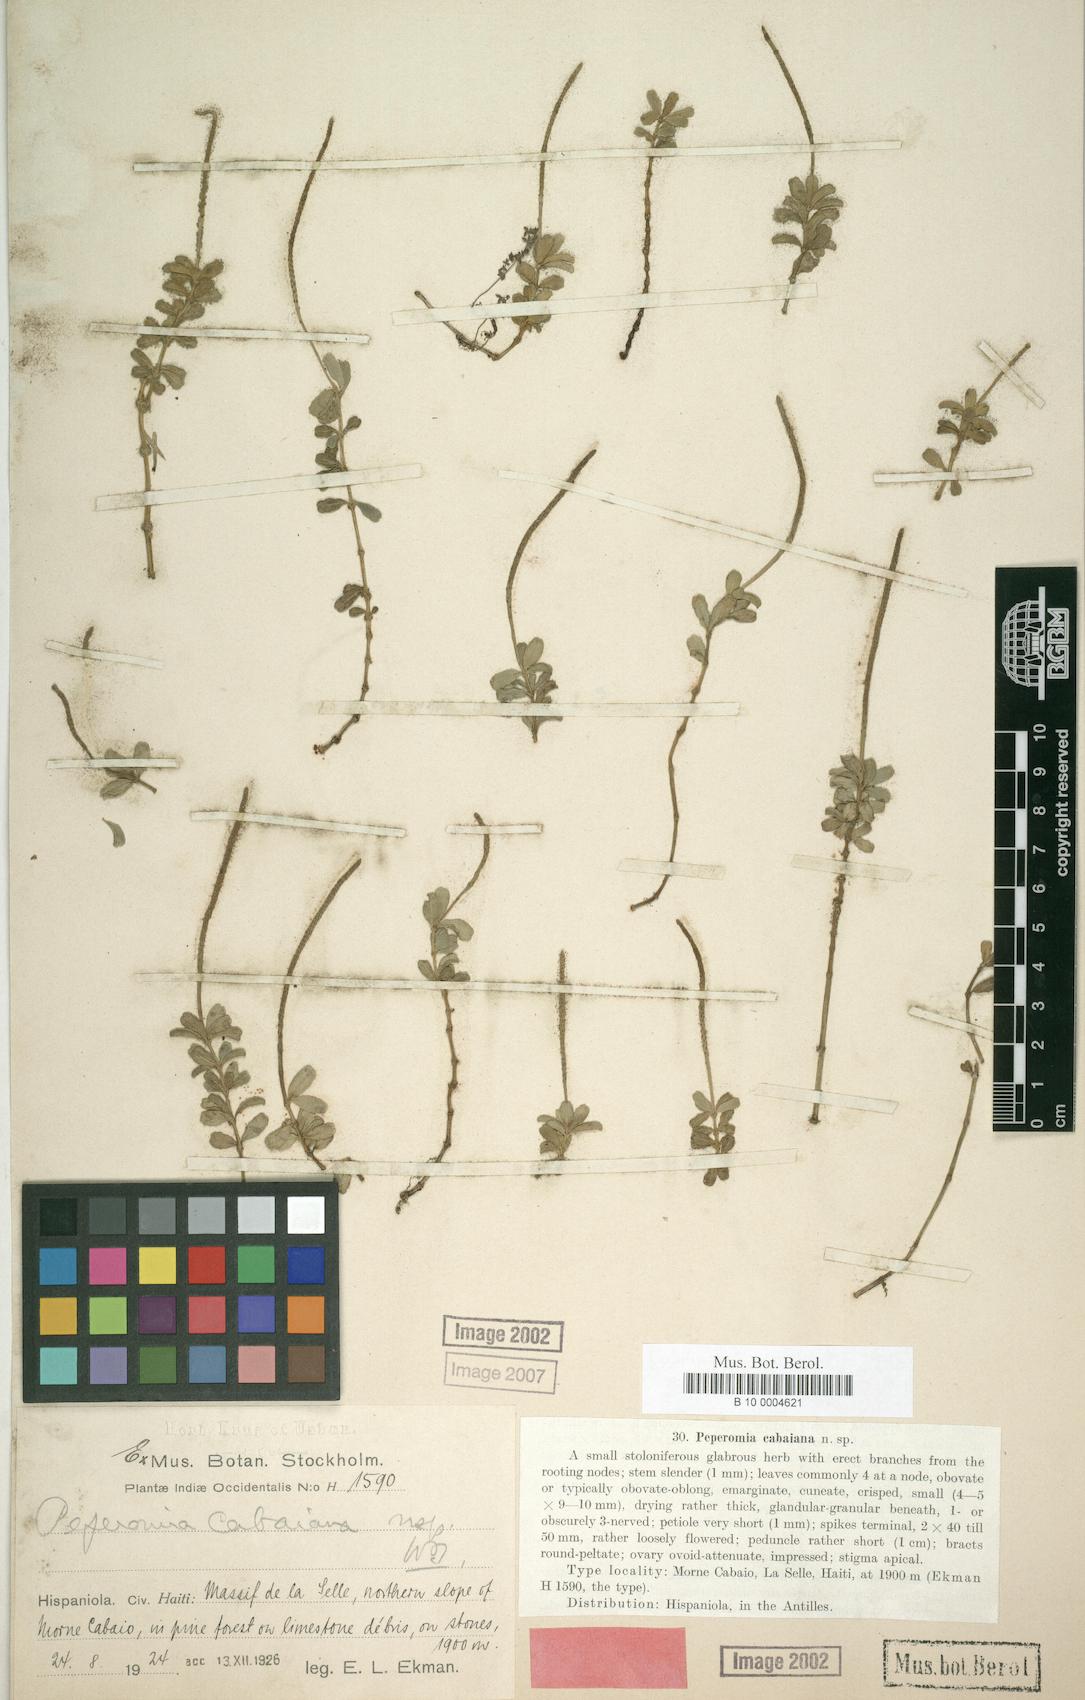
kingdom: Plantae
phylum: Tracheophyta
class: Magnoliopsida
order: Piperales
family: Piperaceae
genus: Peperomia
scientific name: Peperomia quadrifolia
